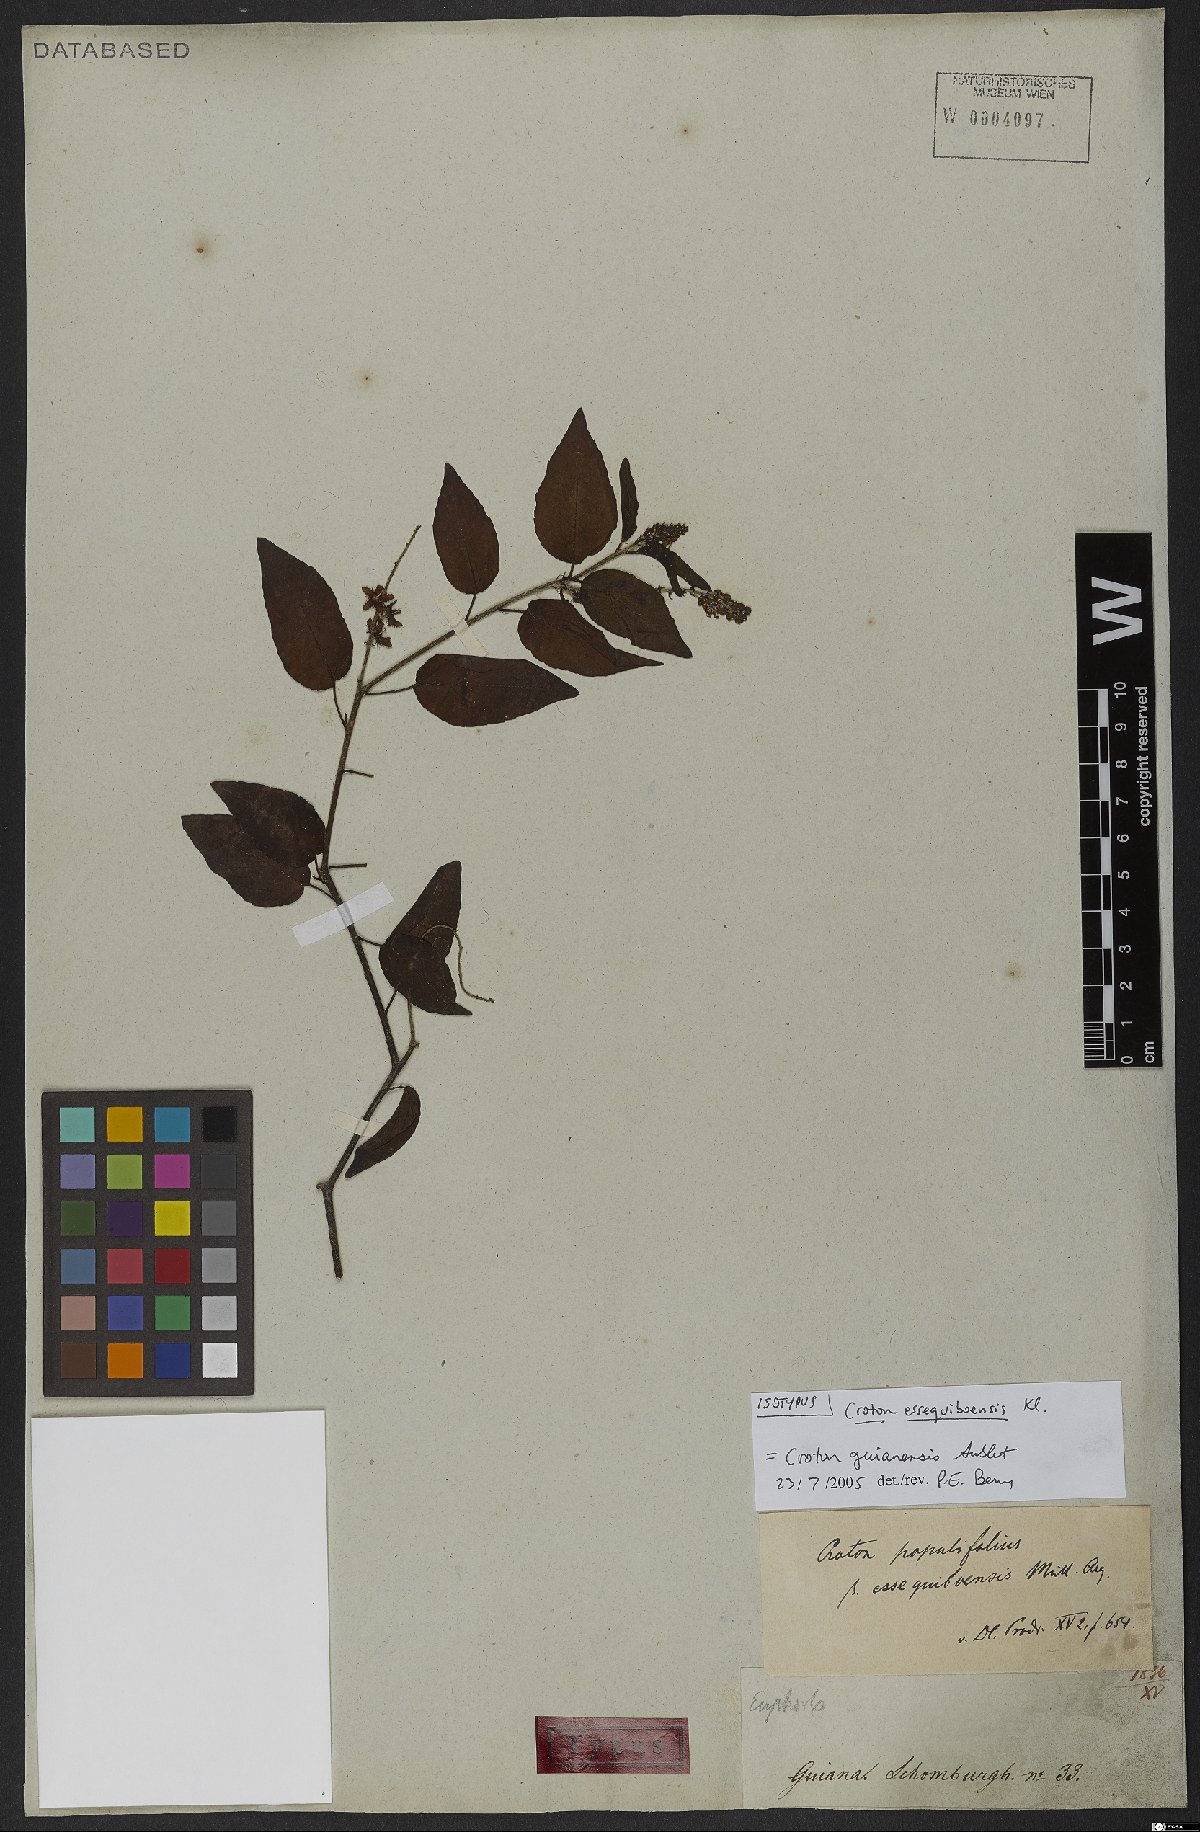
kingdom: Plantae
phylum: Tracheophyta
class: Magnoliopsida
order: Malpighiales
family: Euphorbiaceae
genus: Croton
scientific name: Croton guianensis
